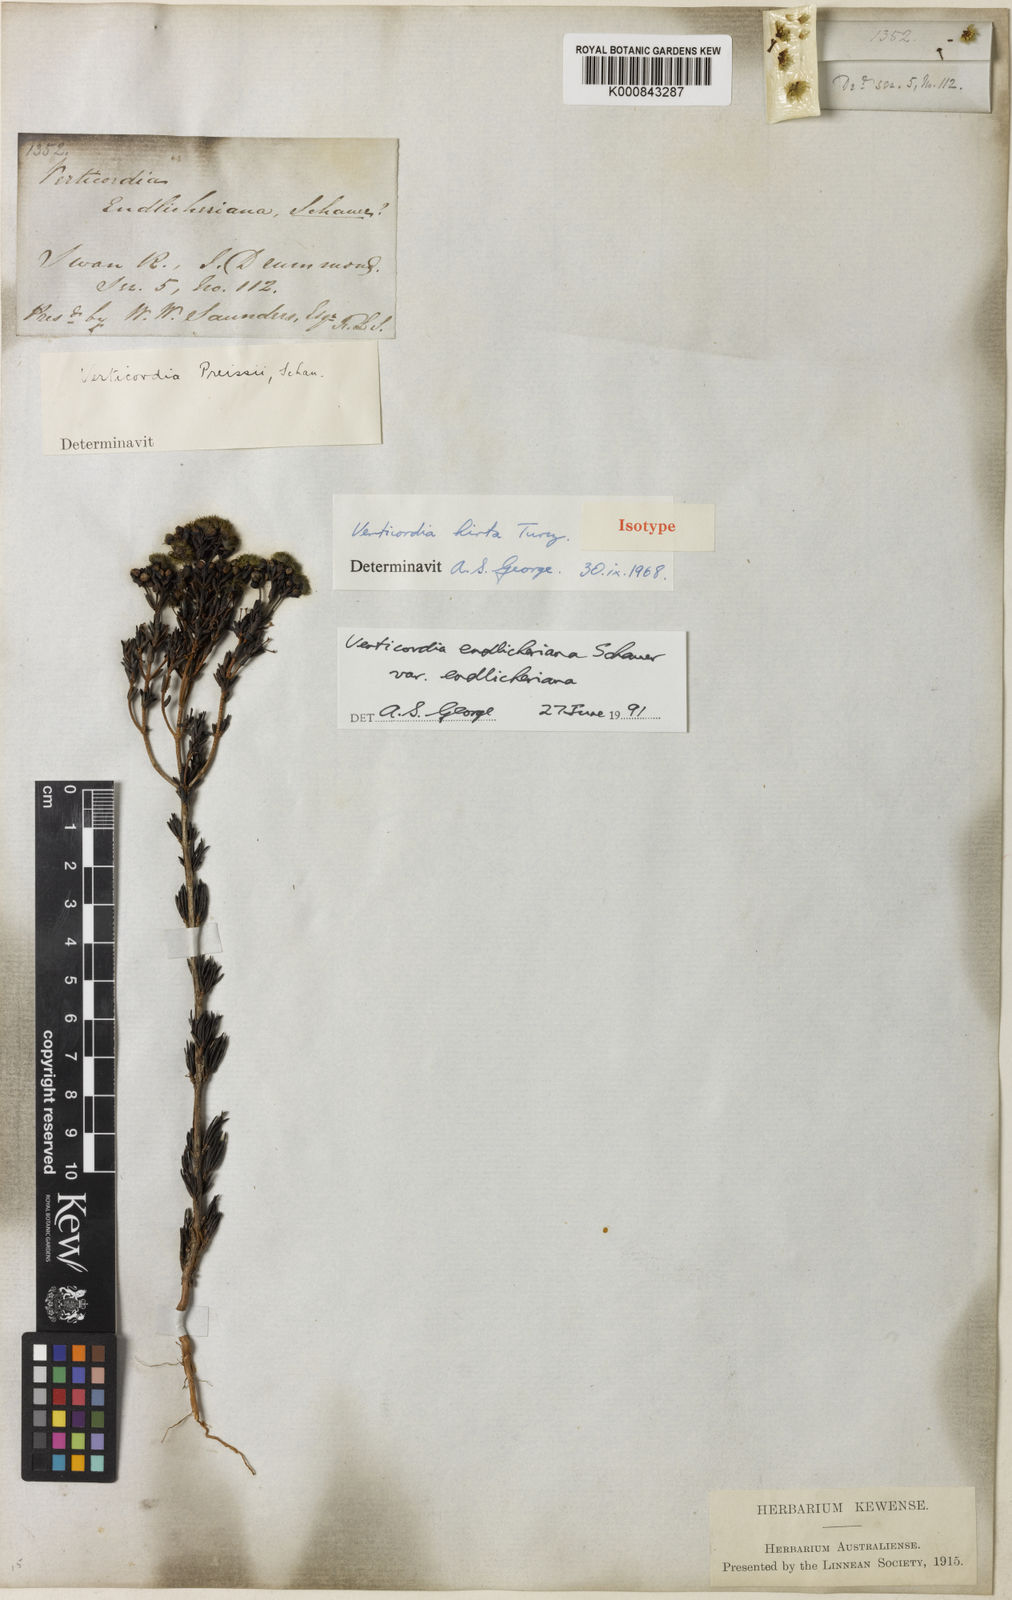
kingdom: Plantae
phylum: Tracheophyta
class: Magnoliopsida
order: Myrtales
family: Myrtaceae
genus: Verticordia
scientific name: Verticordia endlicheriana
